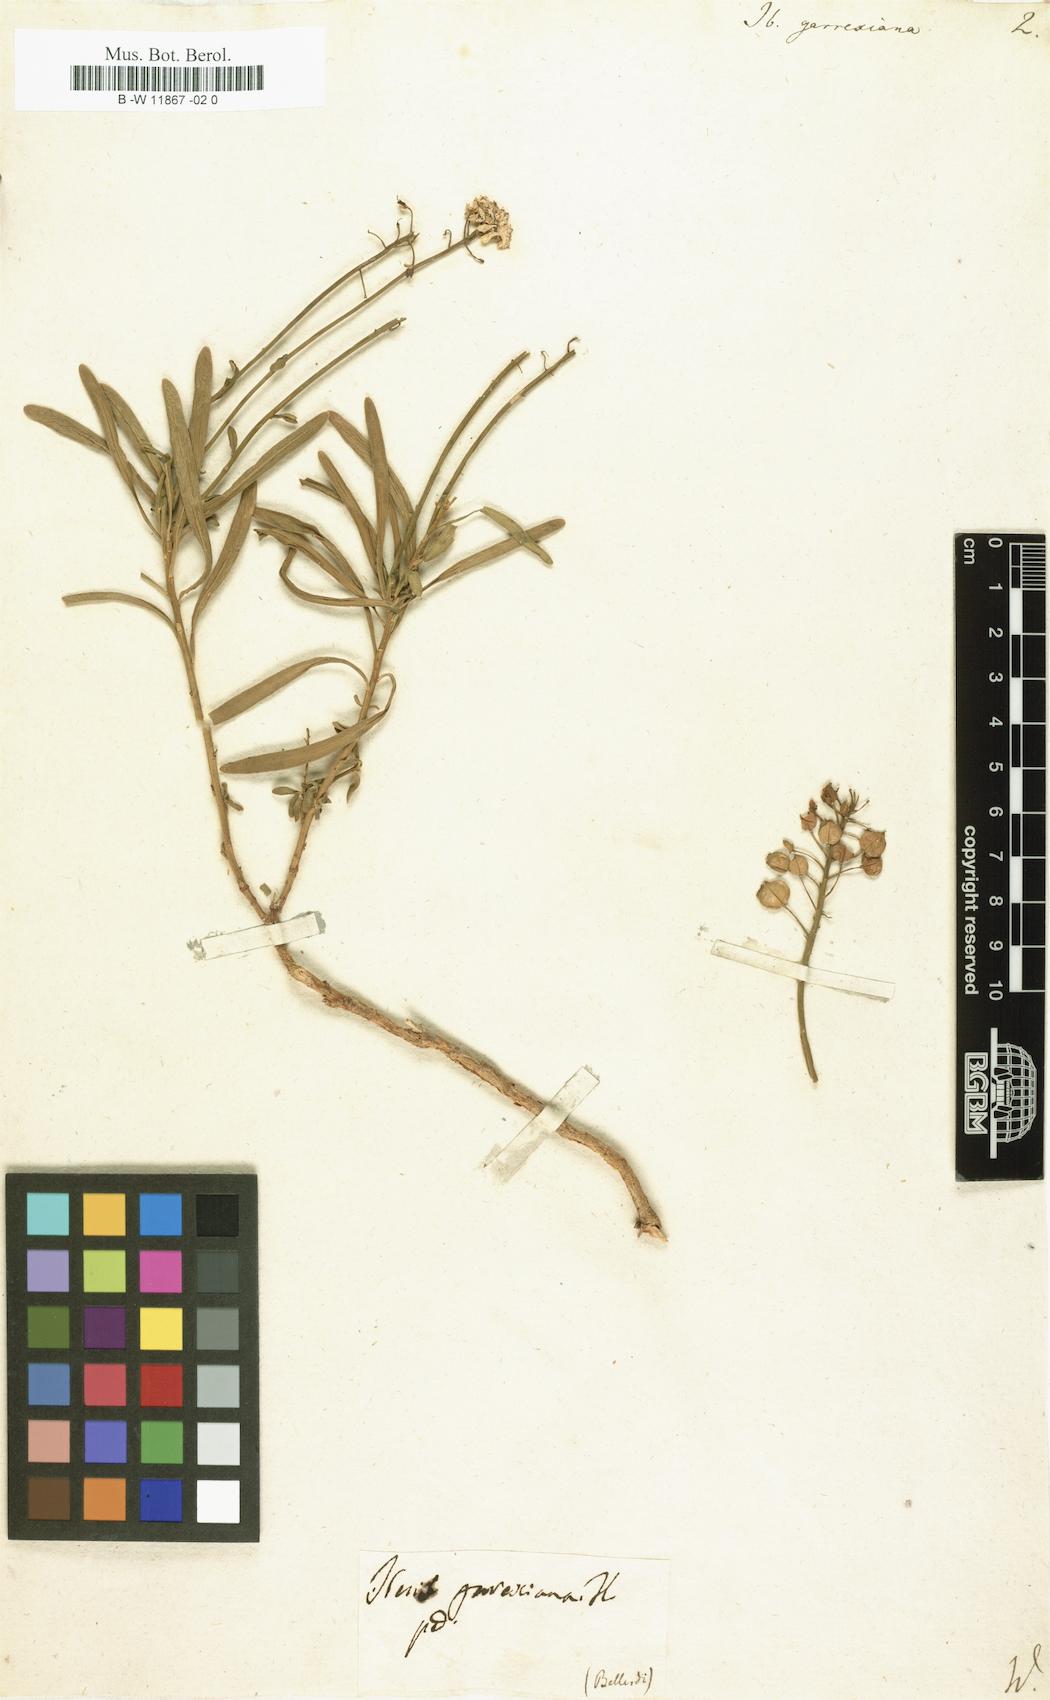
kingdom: Plantae
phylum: Tracheophyta
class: Magnoliopsida
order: Brassicales
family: Brassicaceae
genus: Iberis
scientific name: Iberis
